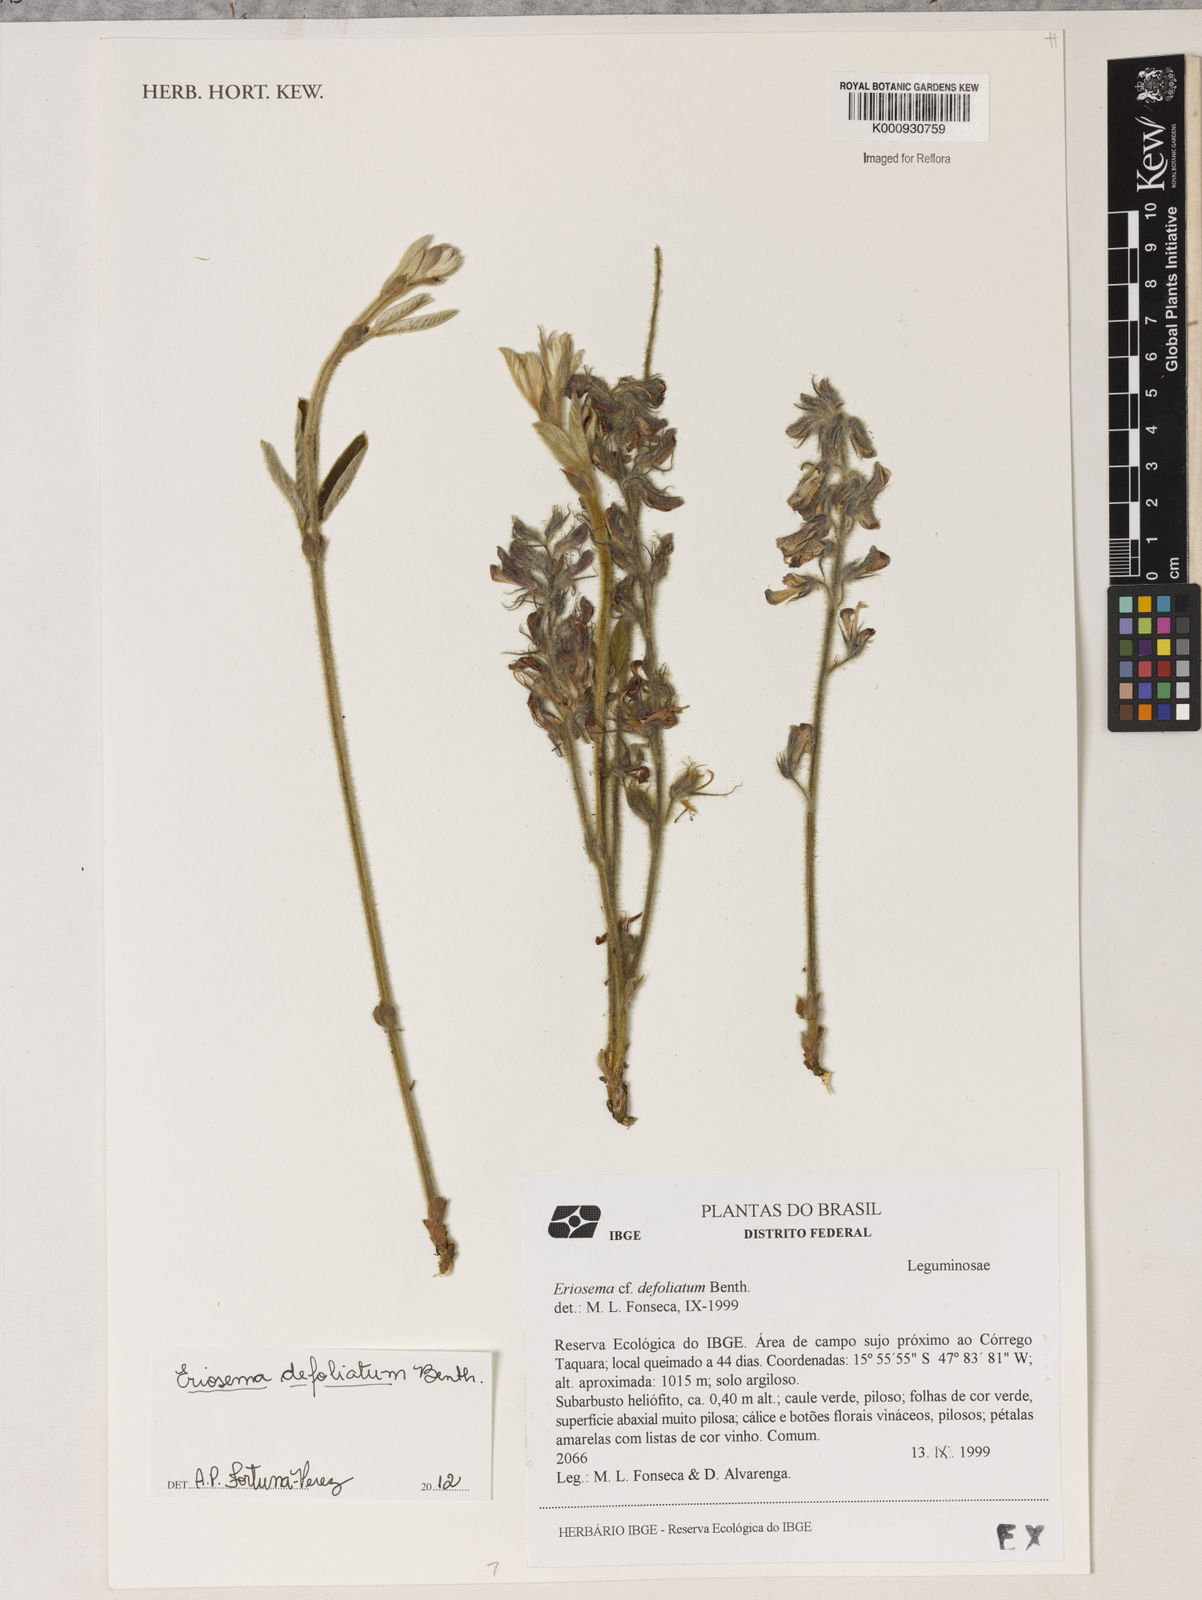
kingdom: Plantae
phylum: Tracheophyta
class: Magnoliopsida
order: Fabales
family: Fabaceae
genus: Eriosema
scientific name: Eriosema defoliatum
